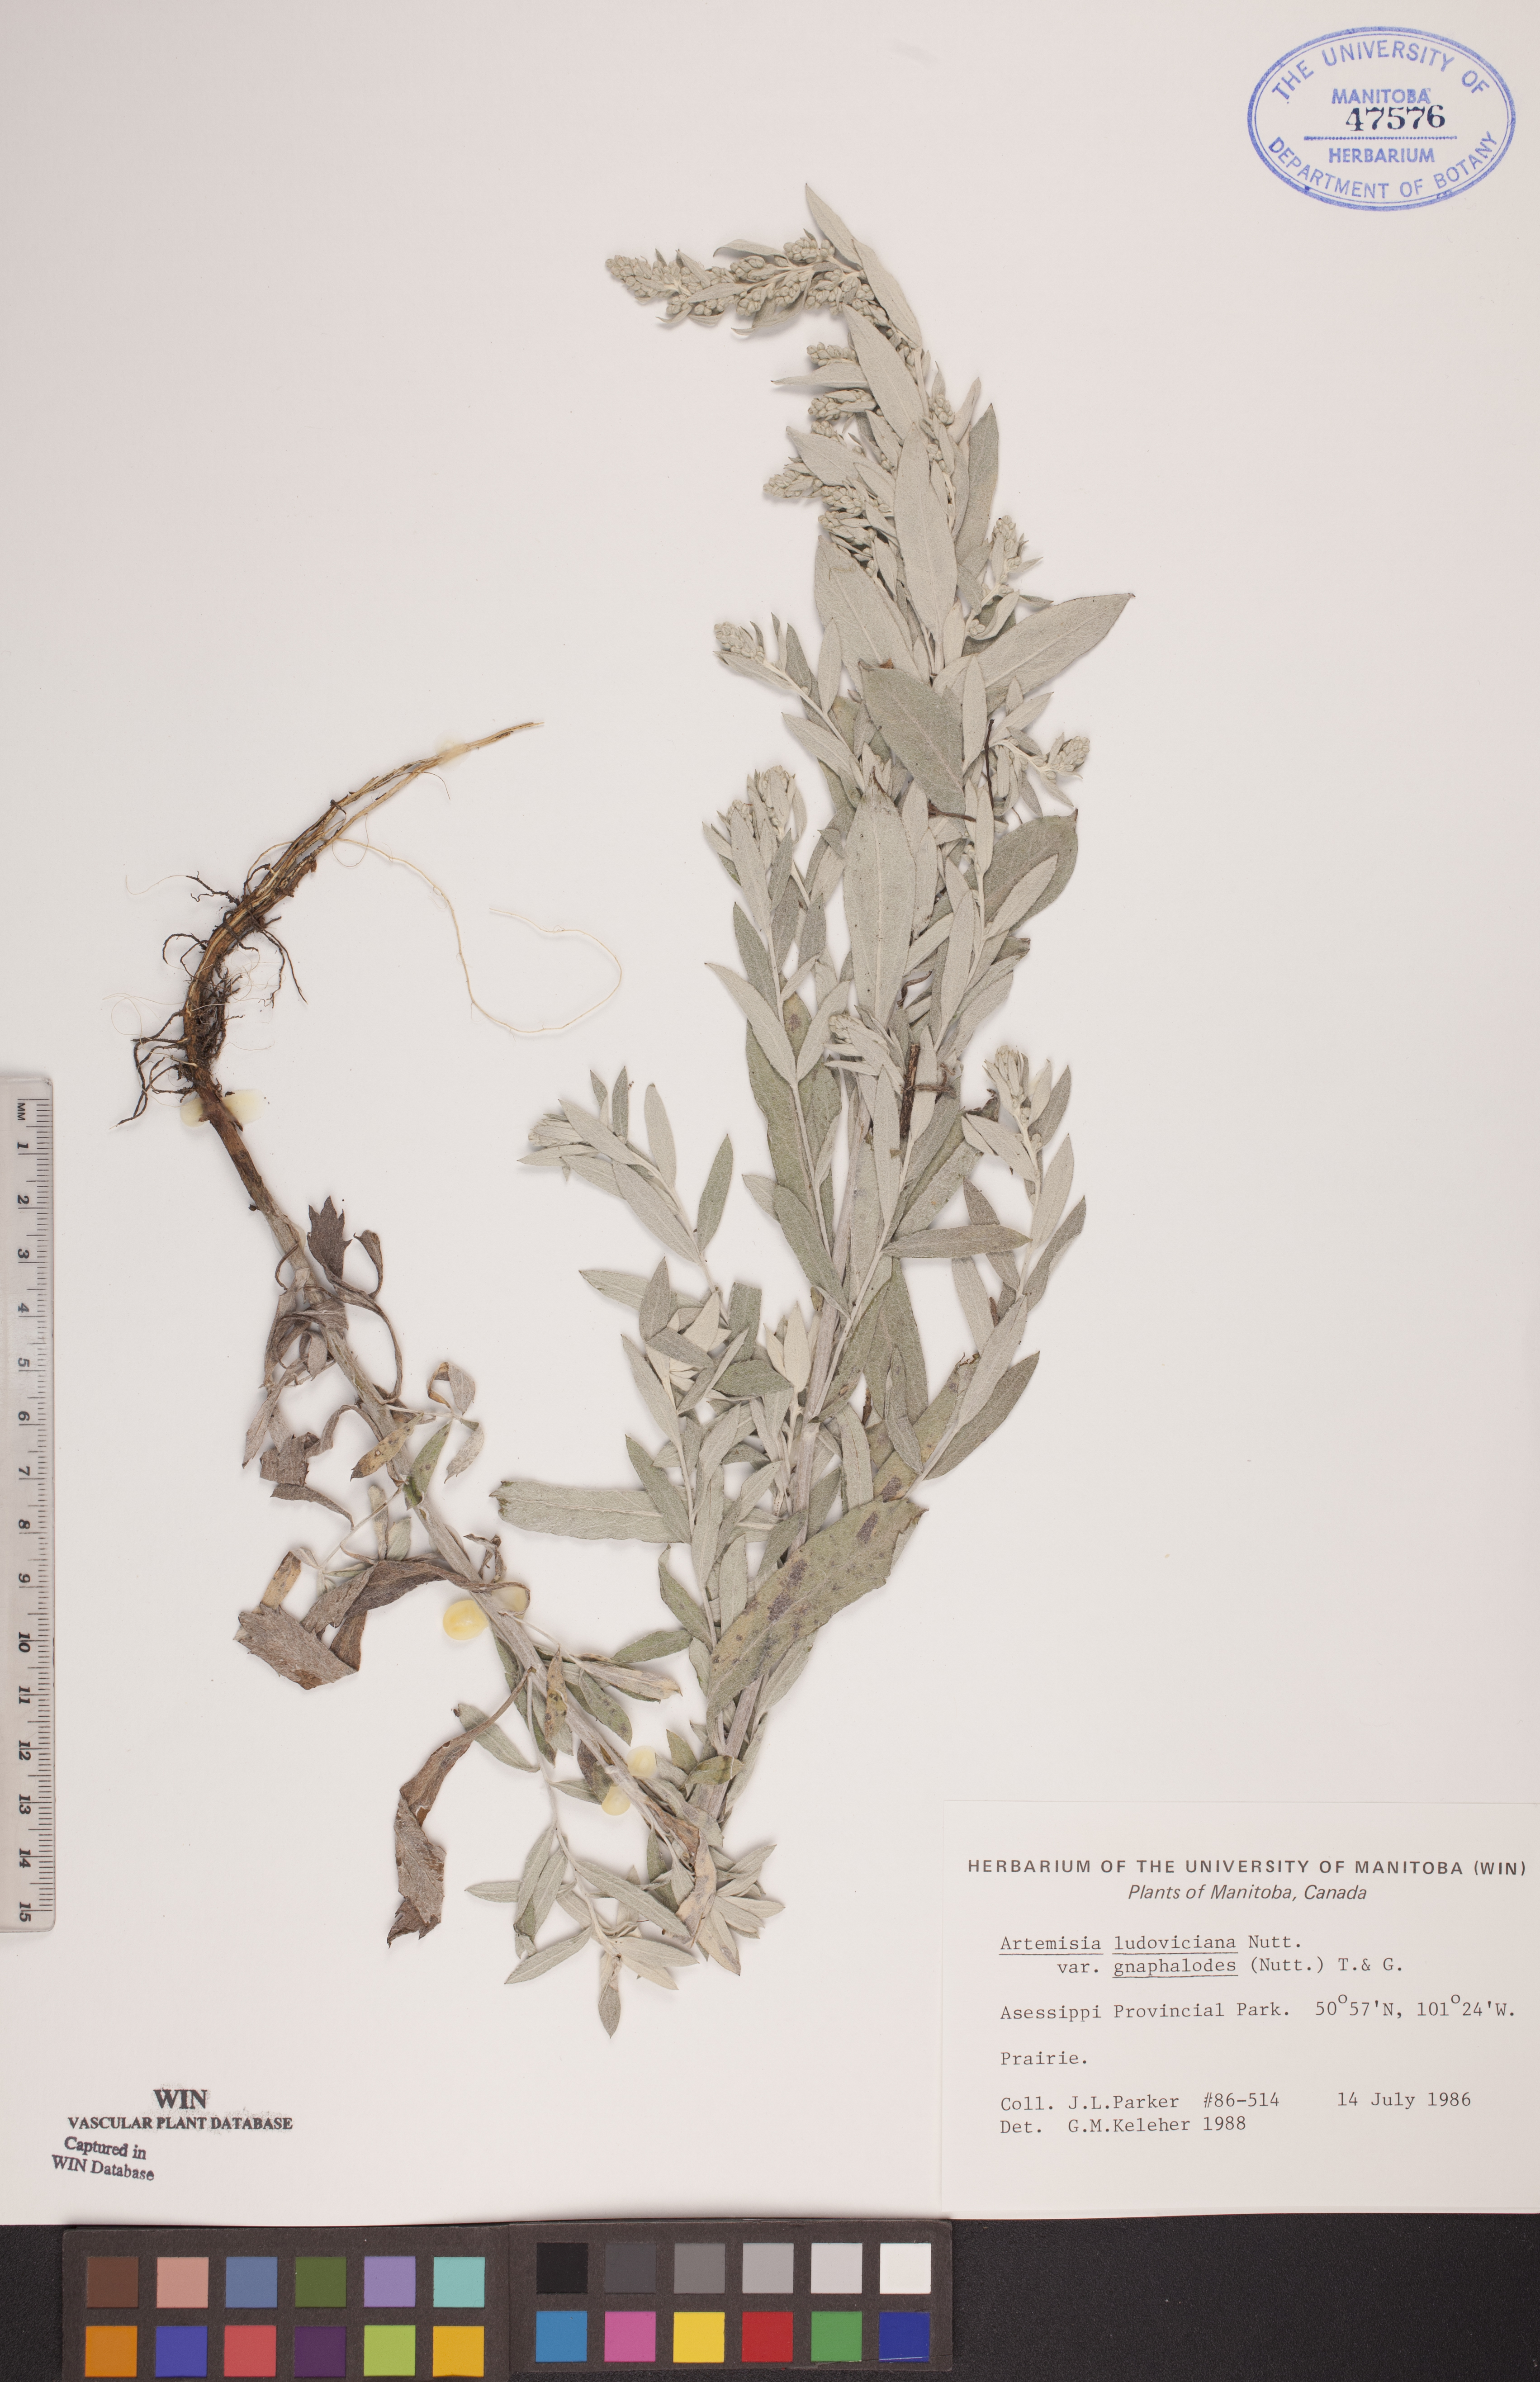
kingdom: Plantae
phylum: Tracheophyta
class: Magnoliopsida
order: Asterales
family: Asteraceae
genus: Artemisia
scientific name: Artemisia ludoviciana
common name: Western mugwort
